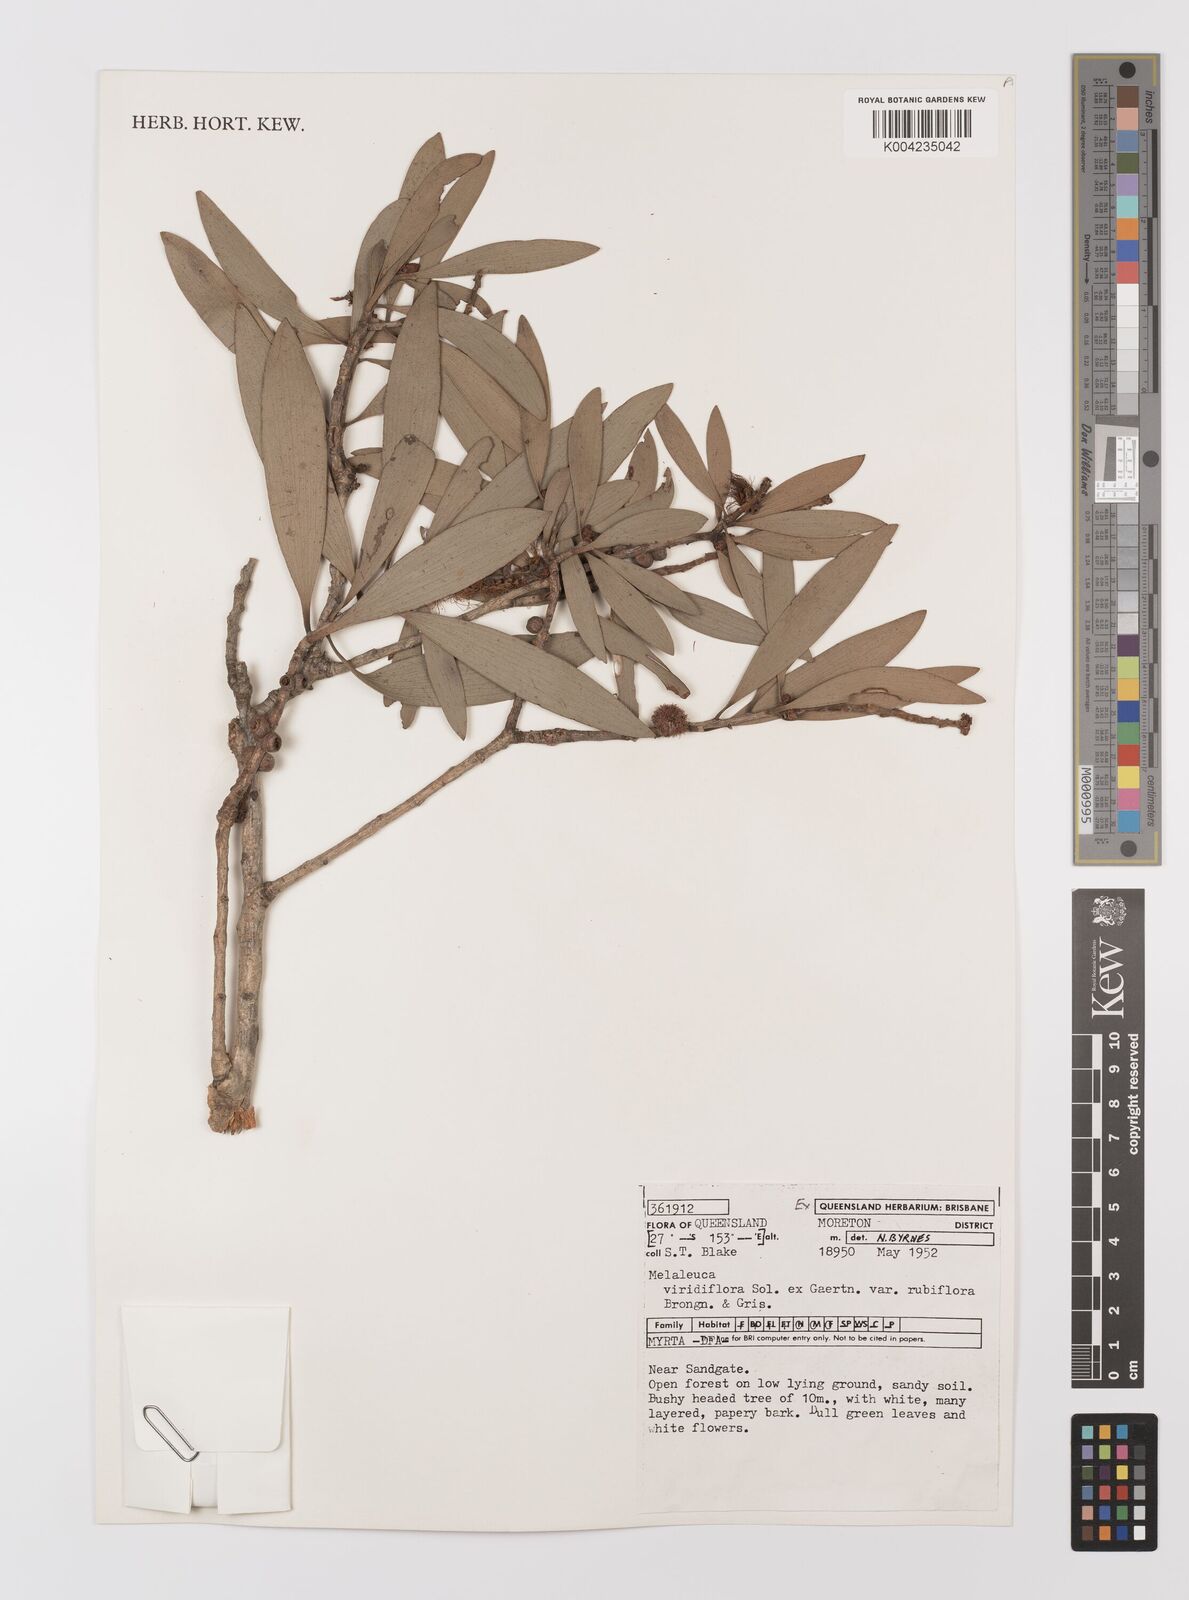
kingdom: Plantae
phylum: Tracheophyta
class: Magnoliopsida
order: Myrtales
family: Myrtaceae
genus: Melaleuca
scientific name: Melaleuca viridiflora
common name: Brown-leaved paperbark
